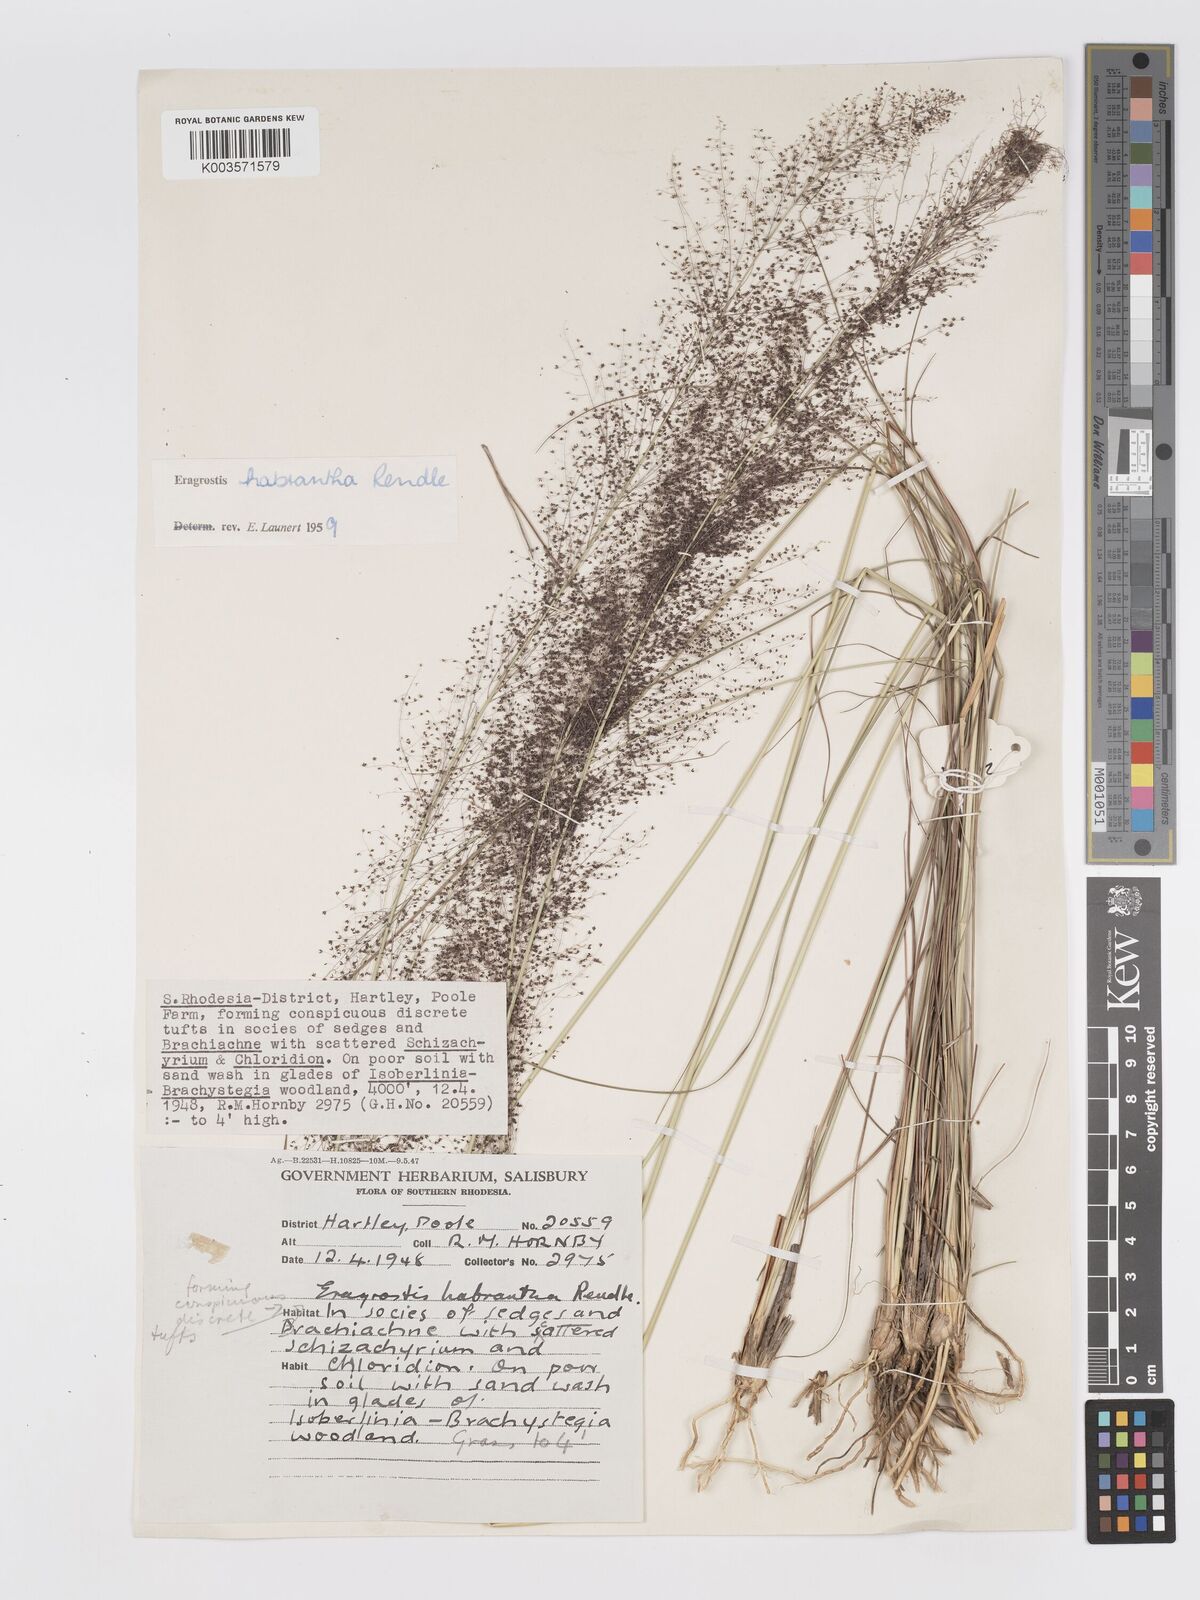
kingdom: Plantae
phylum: Tracheophyta
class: Liliopsida
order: Poales
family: Poaceae
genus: Eragrostis
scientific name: Eragrostis habrantha
